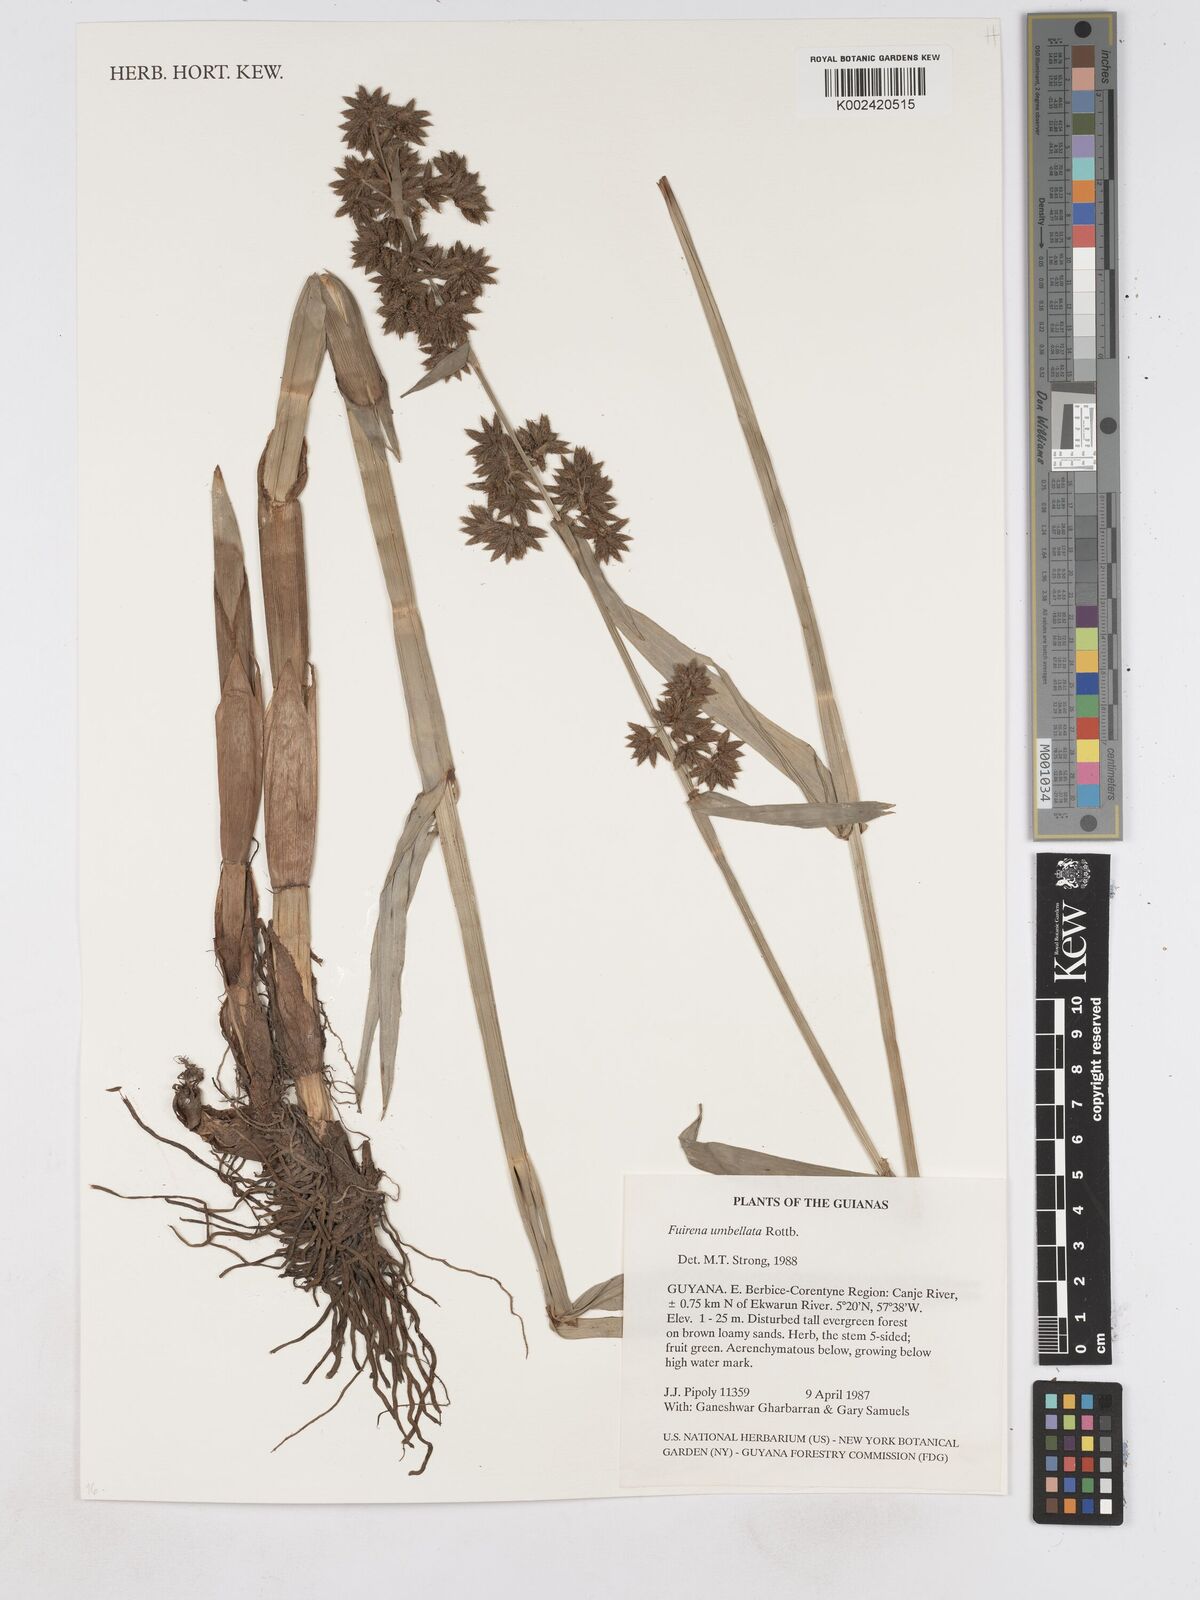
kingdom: Plantae
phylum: Tracheophyta
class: Liliopsida
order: Poales
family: Cyperaceae
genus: Fuirena
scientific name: Fuirena umbellata
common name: Yefen
